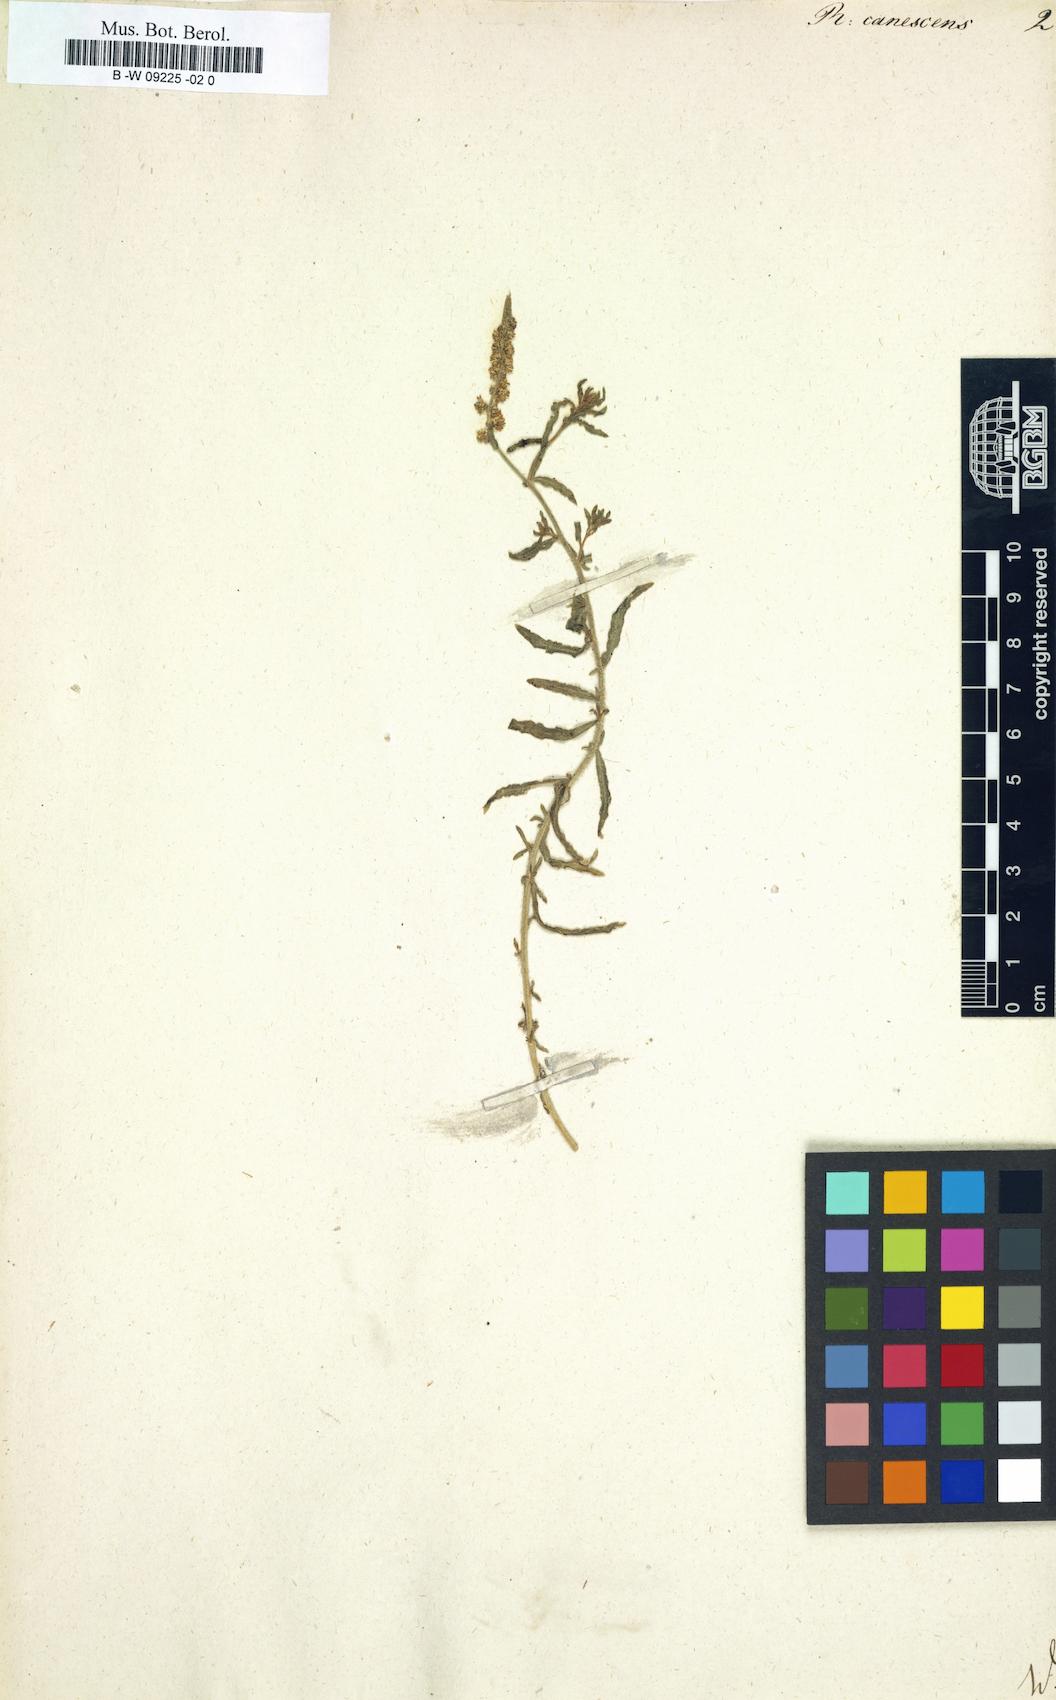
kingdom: Plantae
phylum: Tracheophyta
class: Magnoliopsida
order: Brassicales
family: Resedaceae
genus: Reseda
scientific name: Reseda canescens
